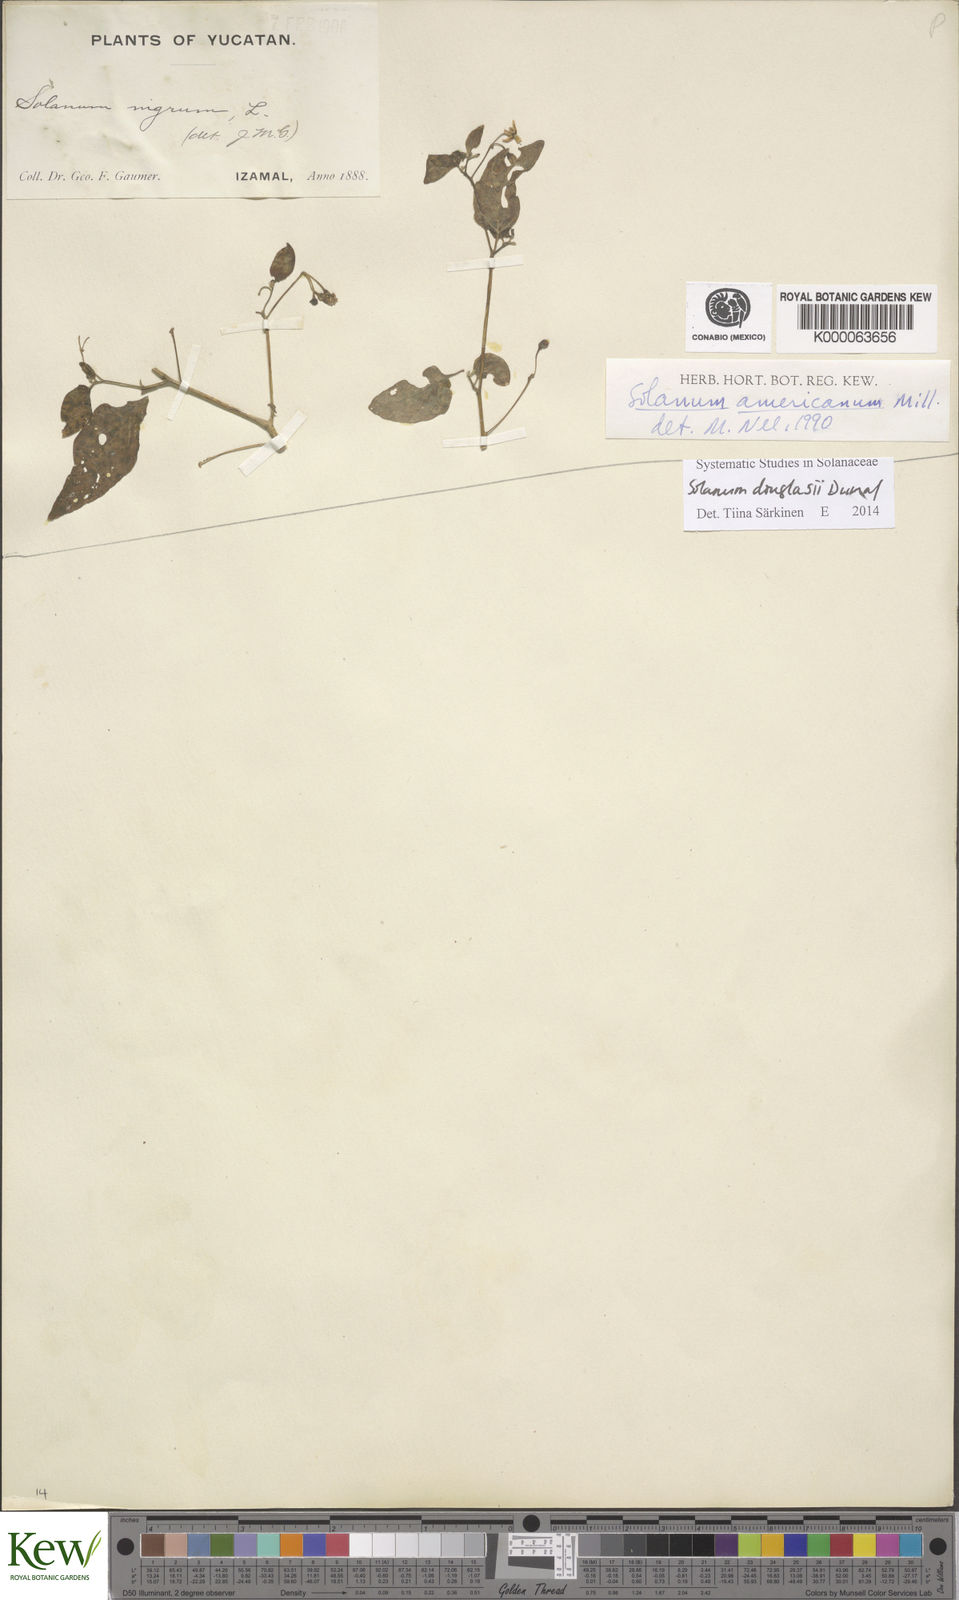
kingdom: Plantae
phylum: Tracheophyta
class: Magnoliopsida
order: Solanales
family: Solanaceae
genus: Solanum
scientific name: Solanum americanum
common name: American black nightshade
